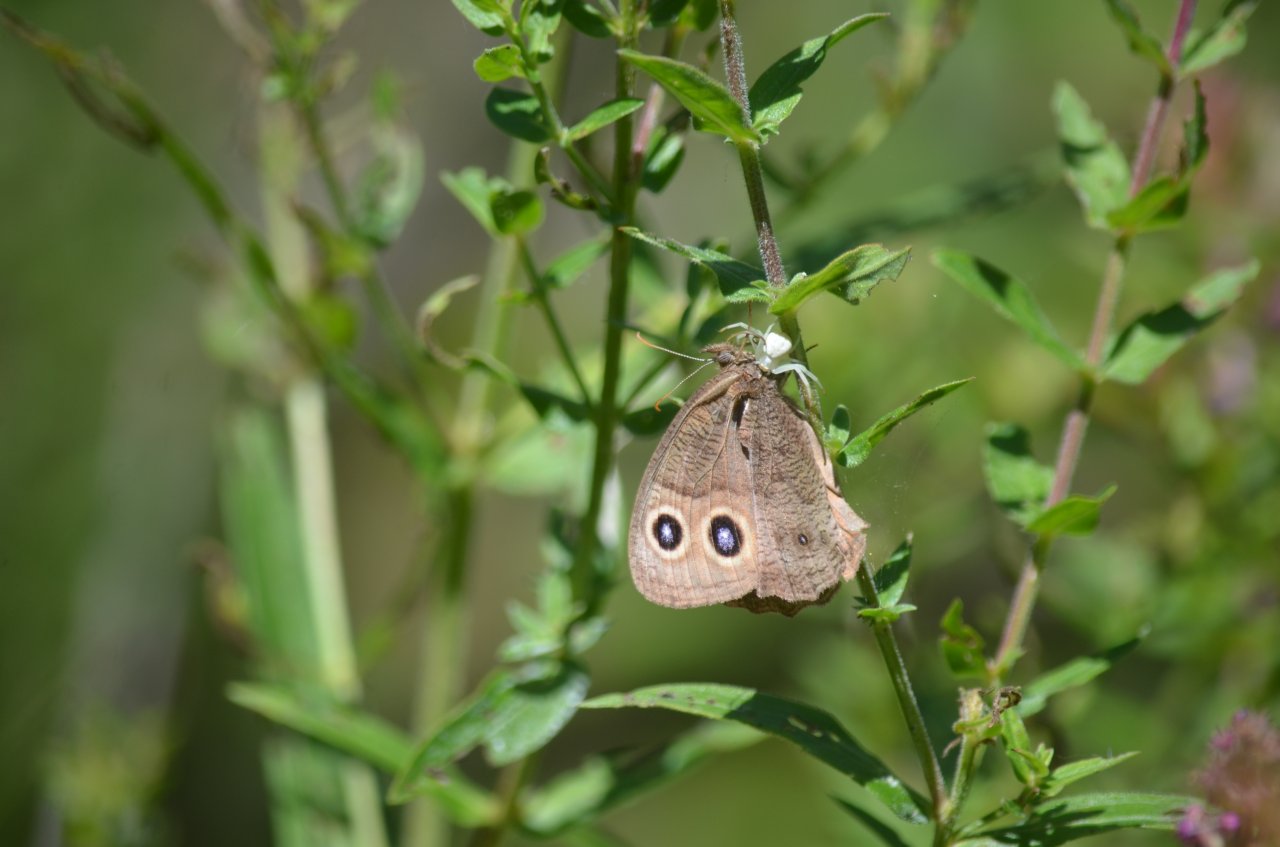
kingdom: Animalia
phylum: Arthropoda
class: Insecta
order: Lepidoptera
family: Nymphalidae
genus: Cercyonis
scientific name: Cercyonis pegala
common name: Common Wood-Nymph
